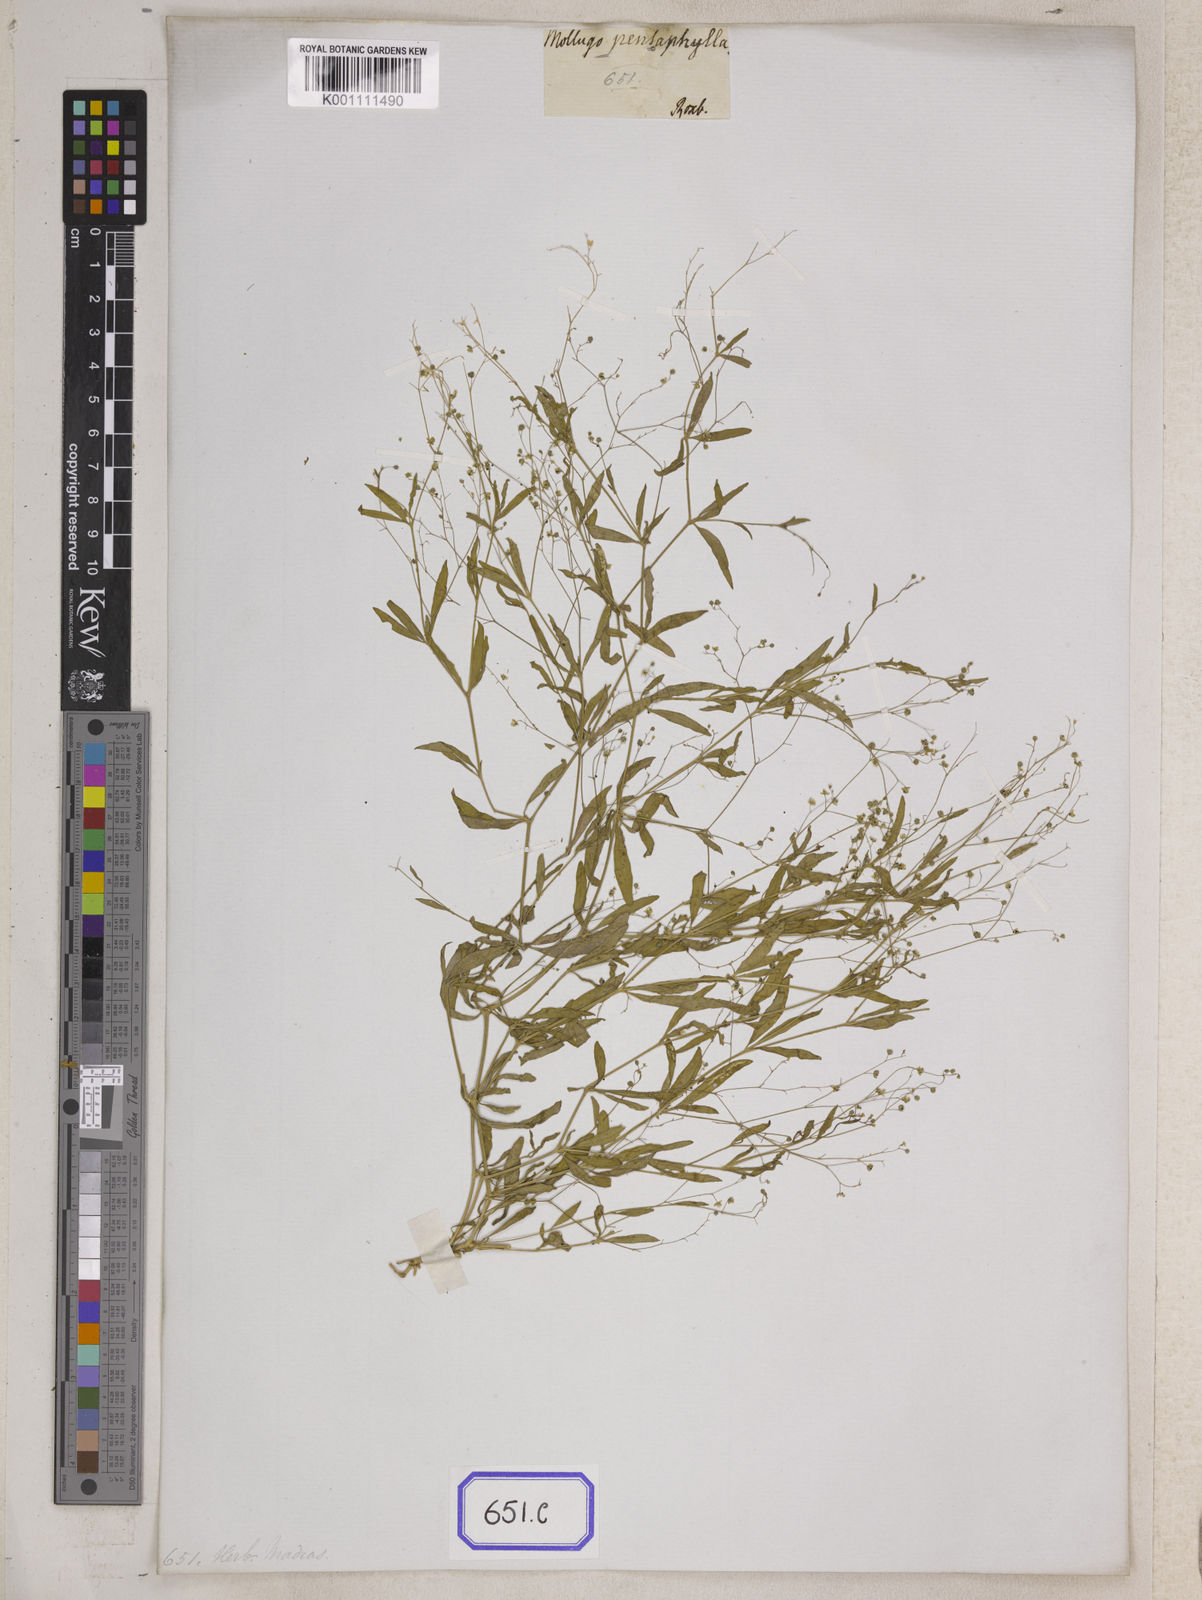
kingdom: Plantae
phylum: Tracheophyta
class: Magnoliopsida
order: Caryophyllales
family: Molluginaceae
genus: Trigastrotheca
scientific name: Trigastrotheca stricta
